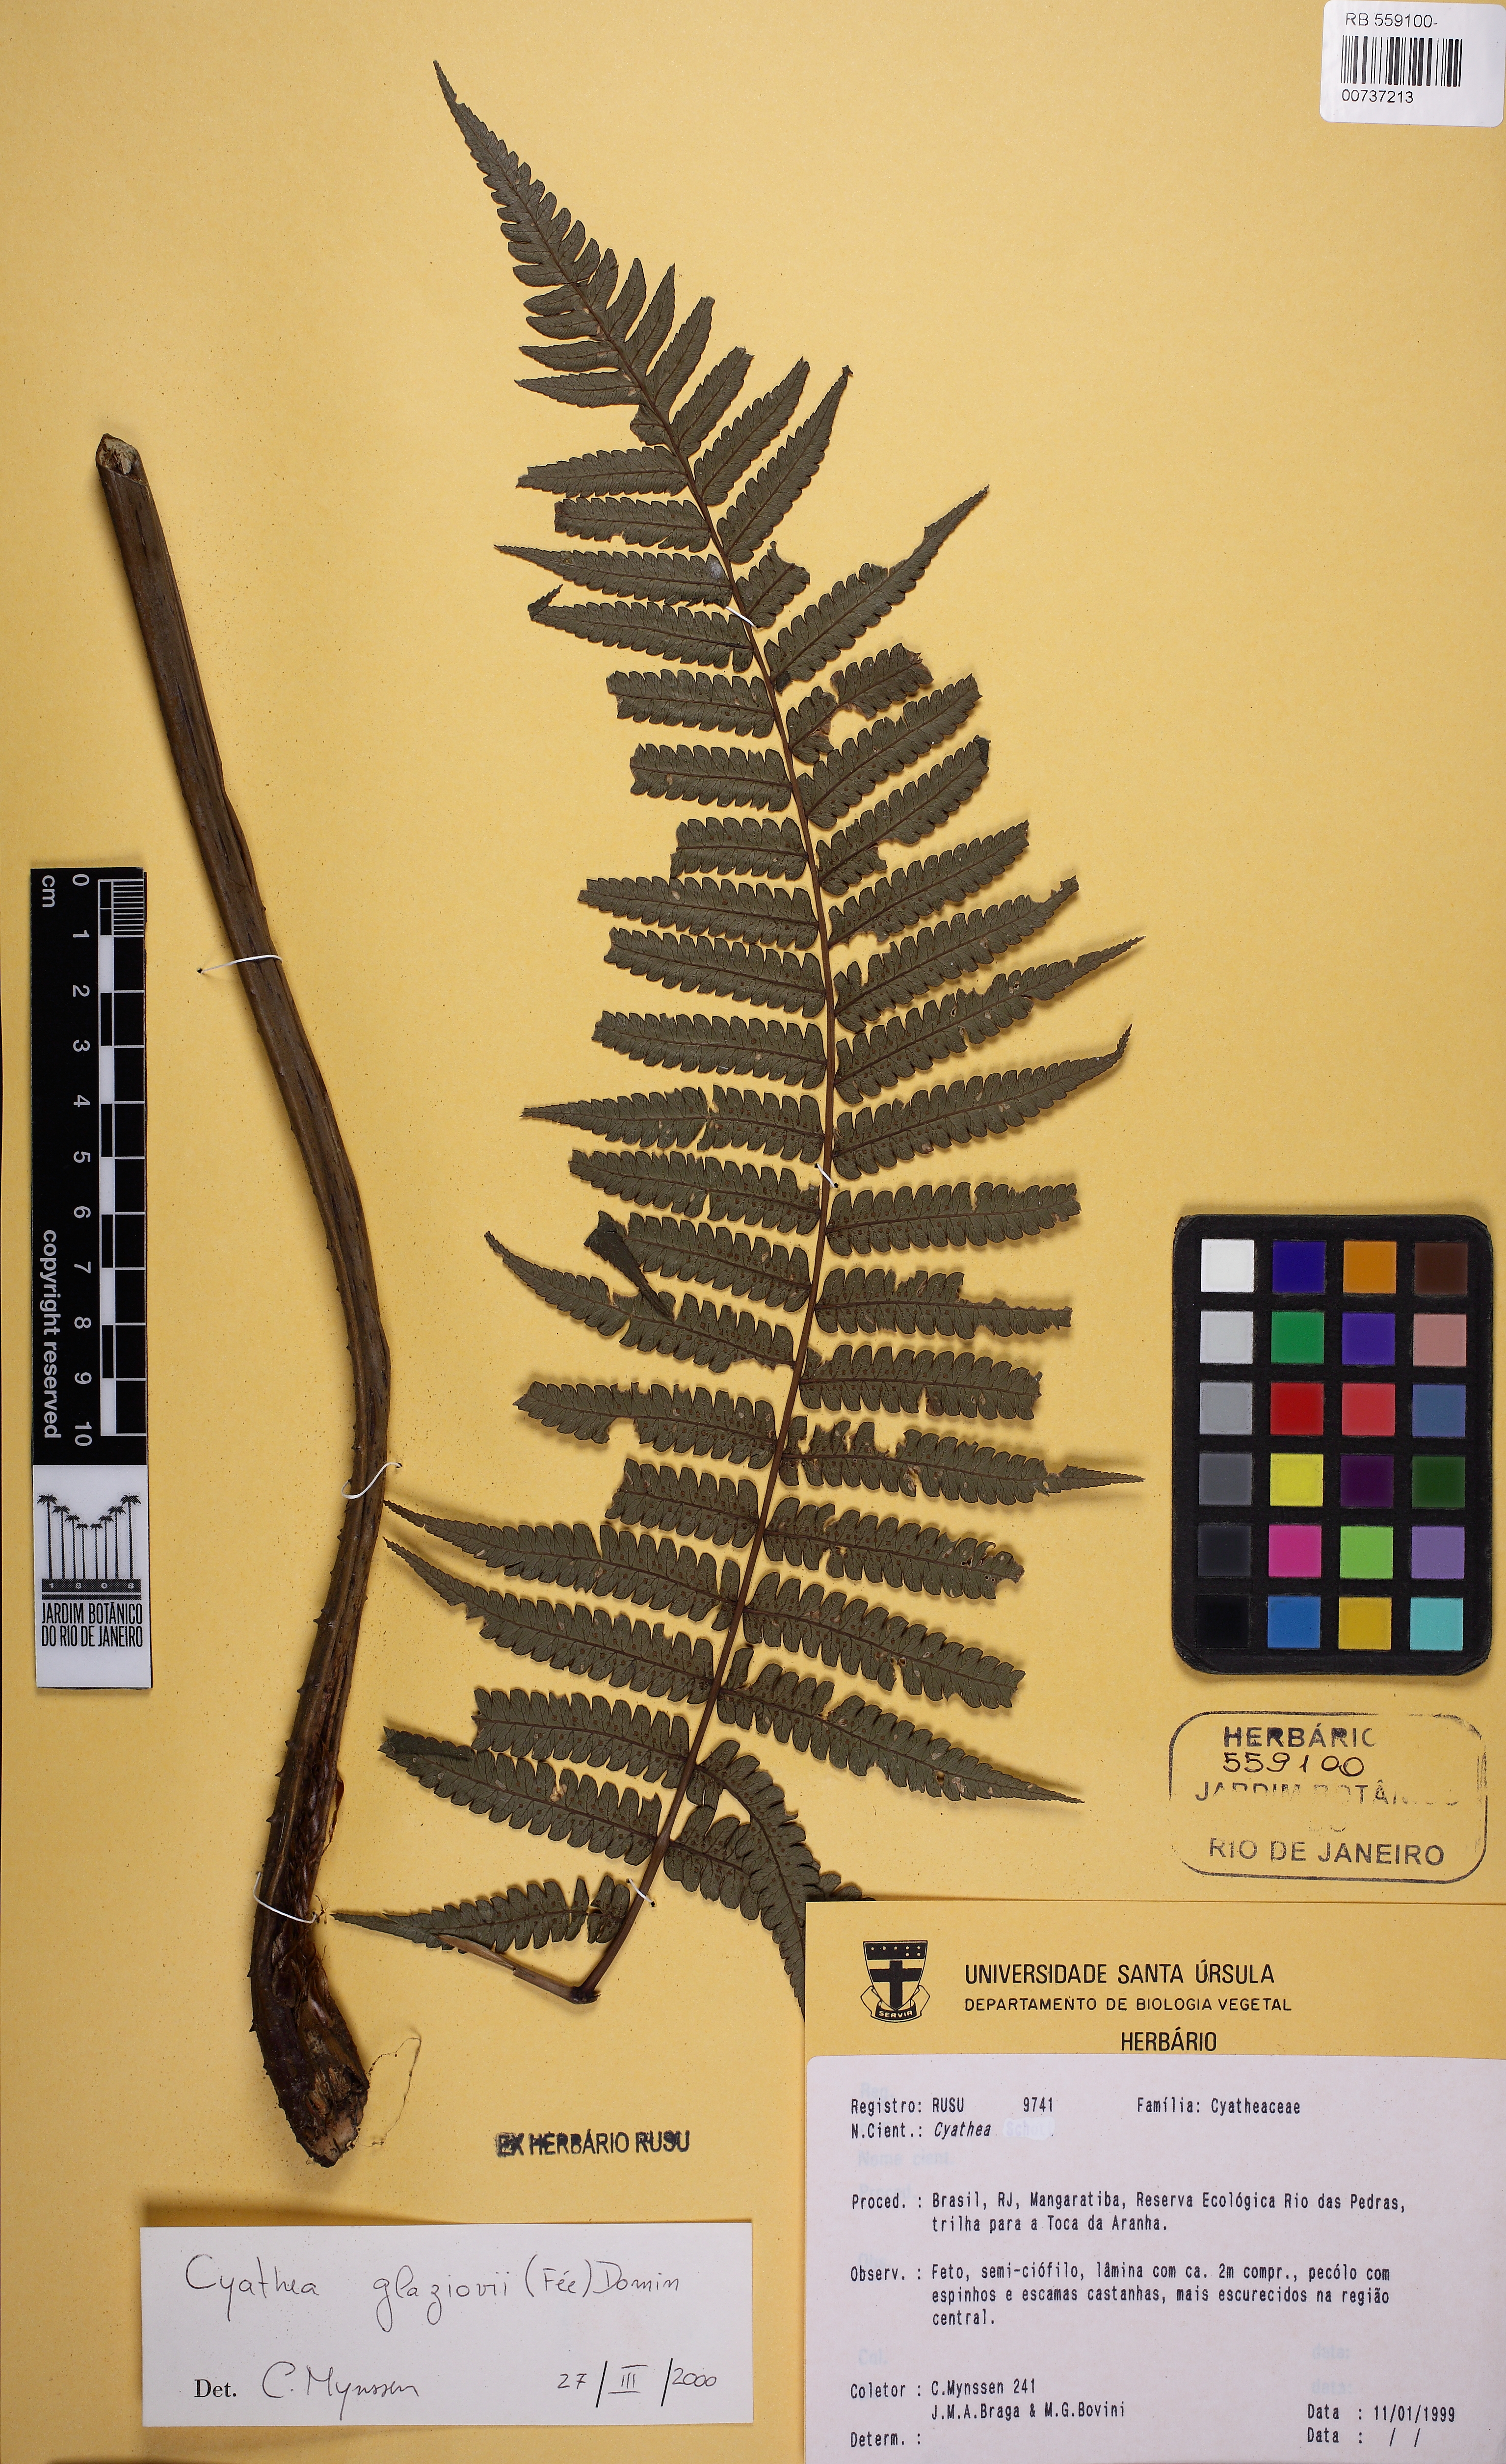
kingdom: Plantae
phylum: Tracheophyta
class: Polypodiopsida
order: Cyatheales
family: Cyatheaceae
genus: Cyathea
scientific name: Cyathea glaziovii
